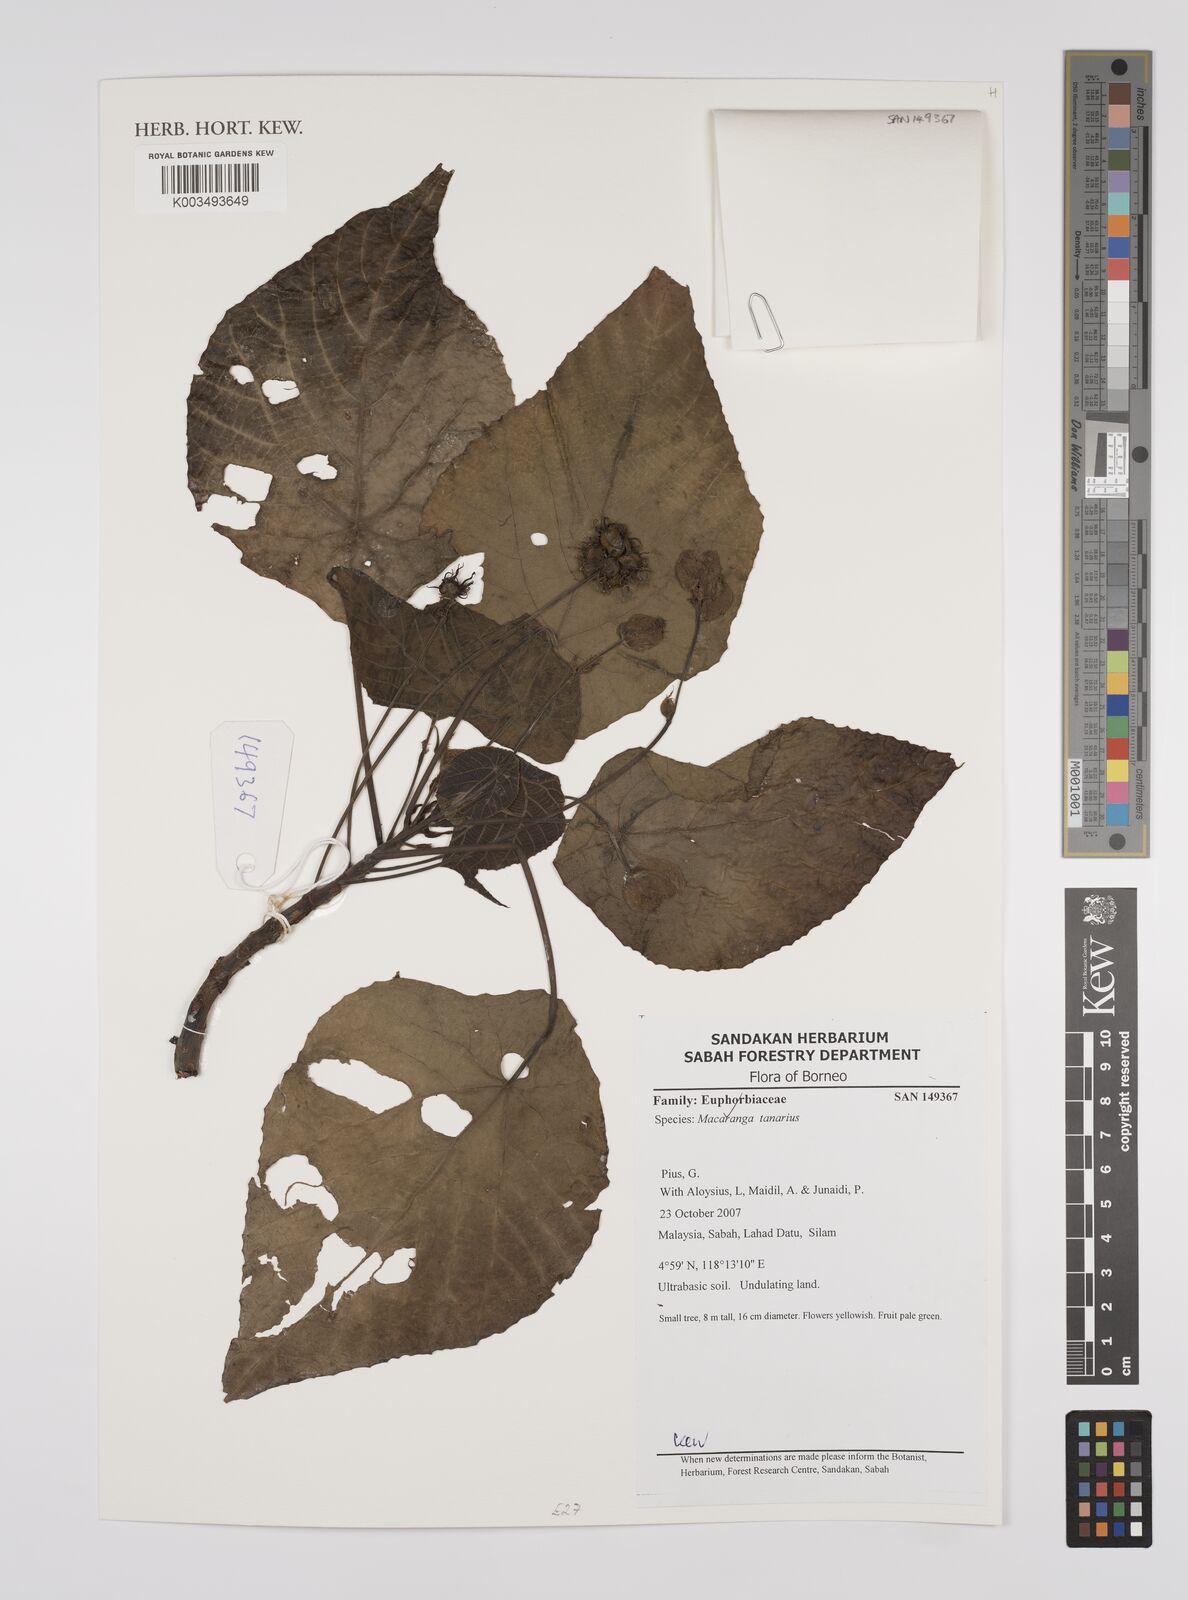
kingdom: Plantae
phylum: Tracheophyta
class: Magnoliopsida
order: Malpighiales
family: Euphorbiaceae
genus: Macaranga
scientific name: Macaranga tanarius
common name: Parasol leaf tree
